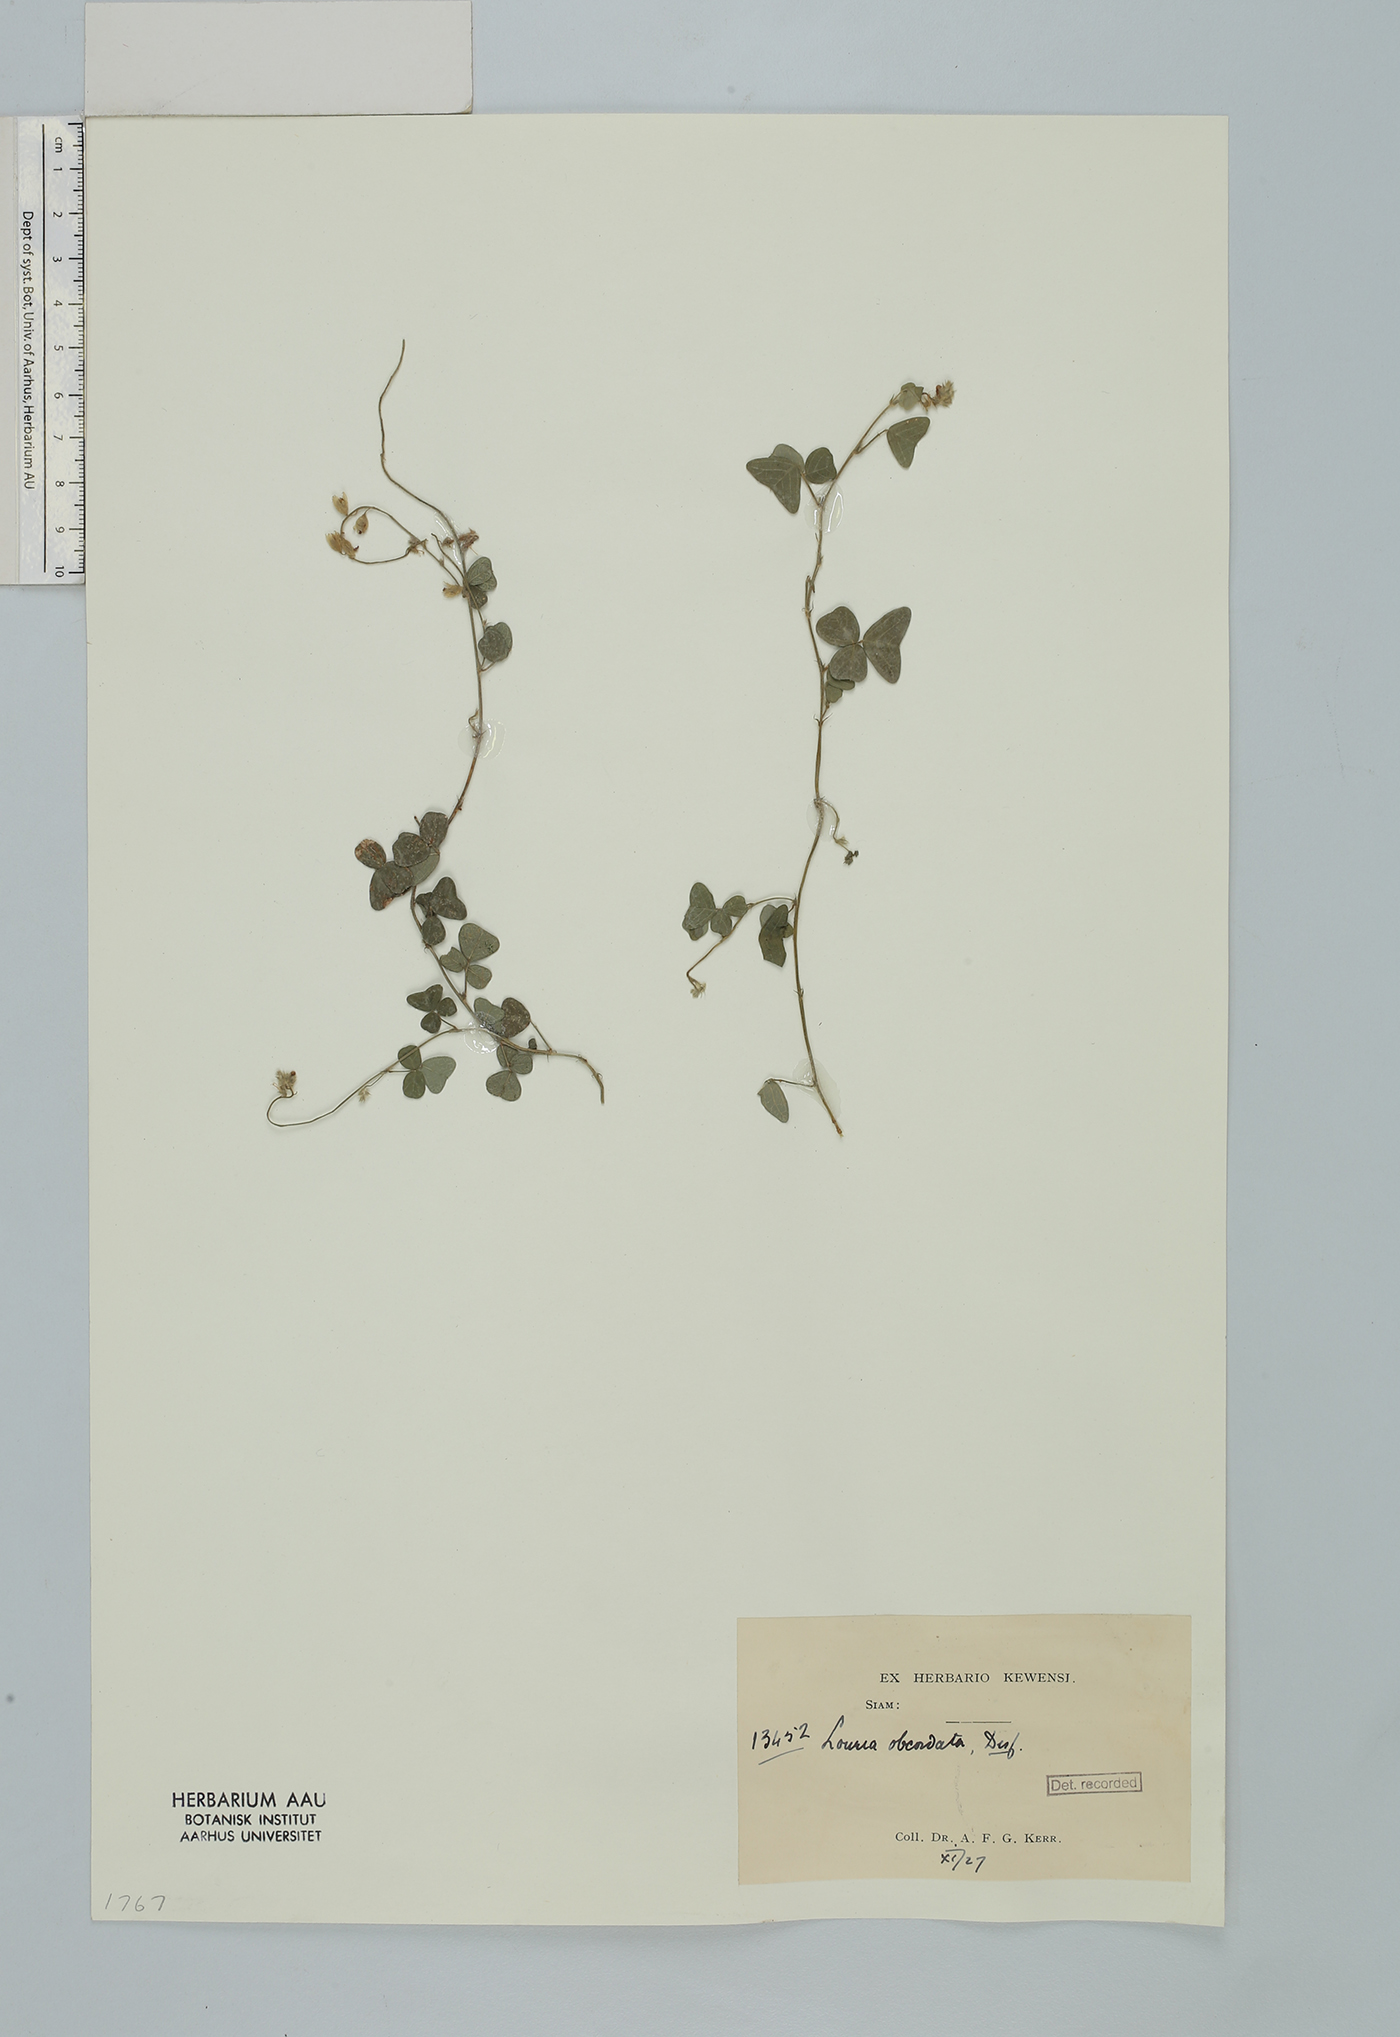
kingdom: Plantae
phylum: Tracheophyta
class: Magnoliopsida
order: Fabales
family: Fabaceae
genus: Christia
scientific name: Christia obcordata
